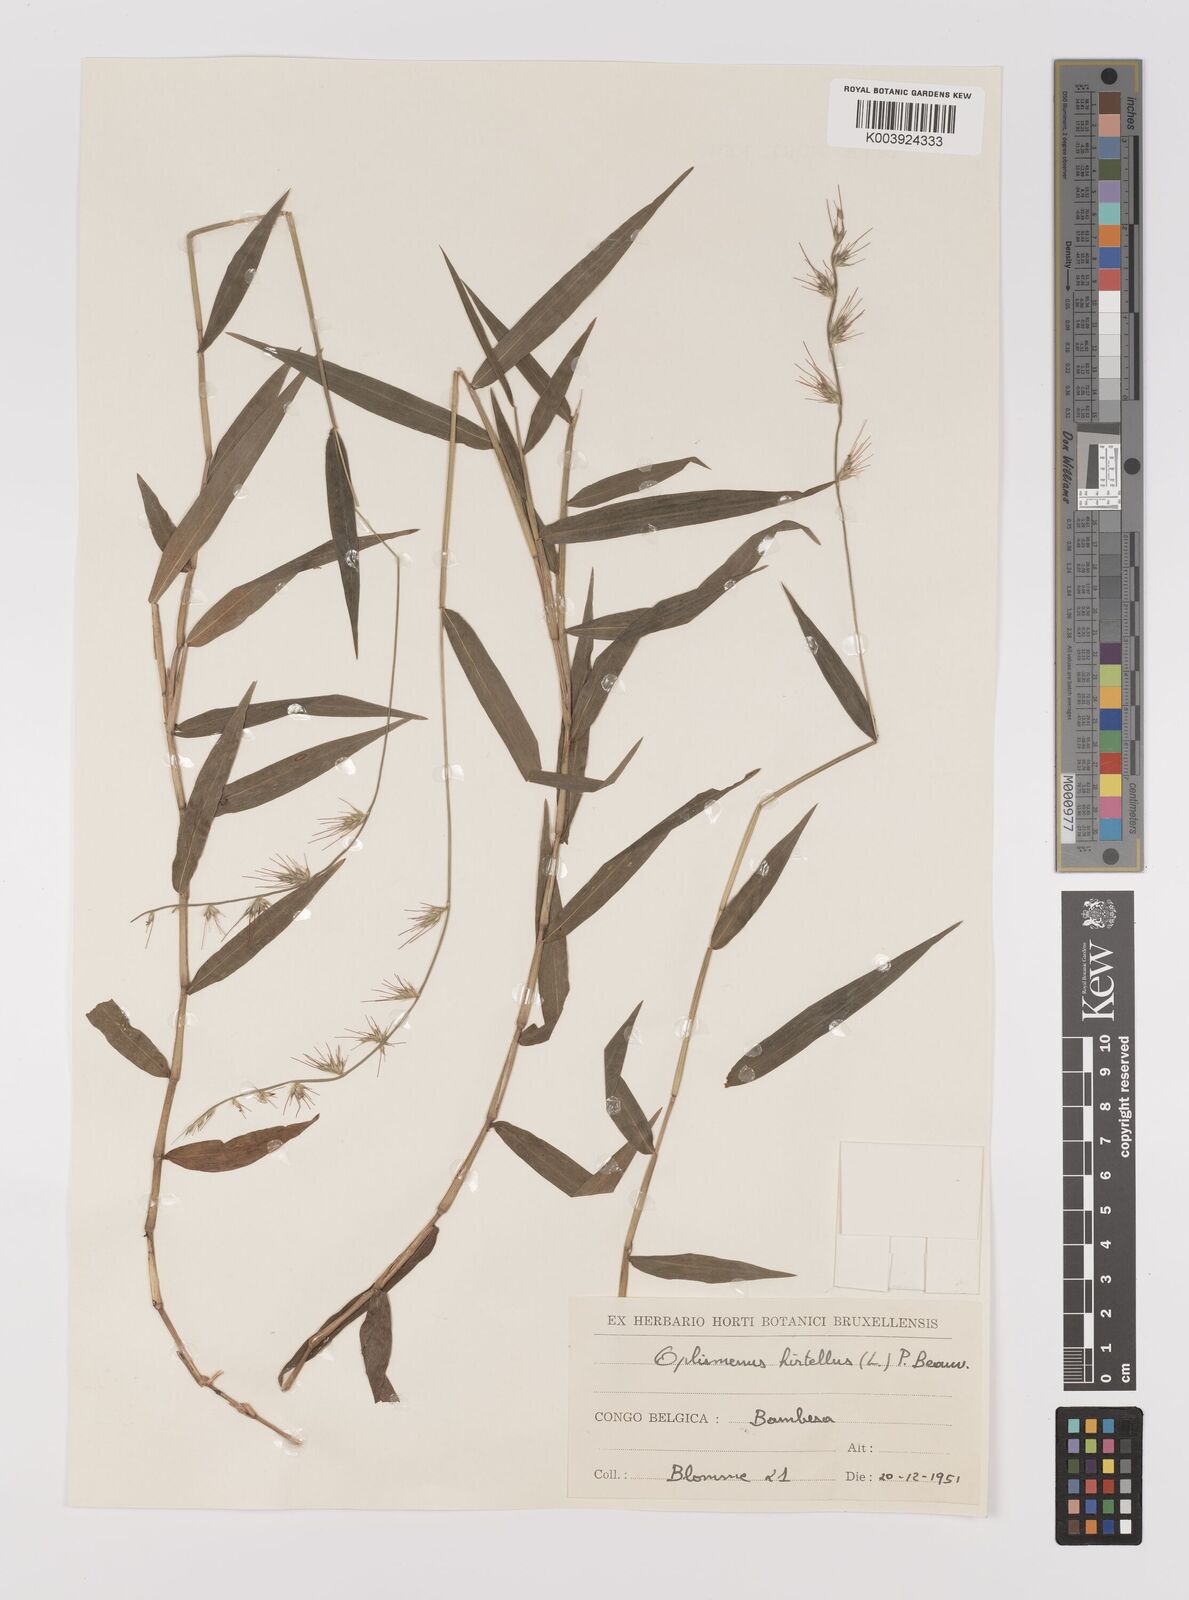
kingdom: Plantae
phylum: Tracheophyta
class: Liliopsida
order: Poales
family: Poaceae
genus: Oplismenus
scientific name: Oplismenus hirtellus
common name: Basketgrass
